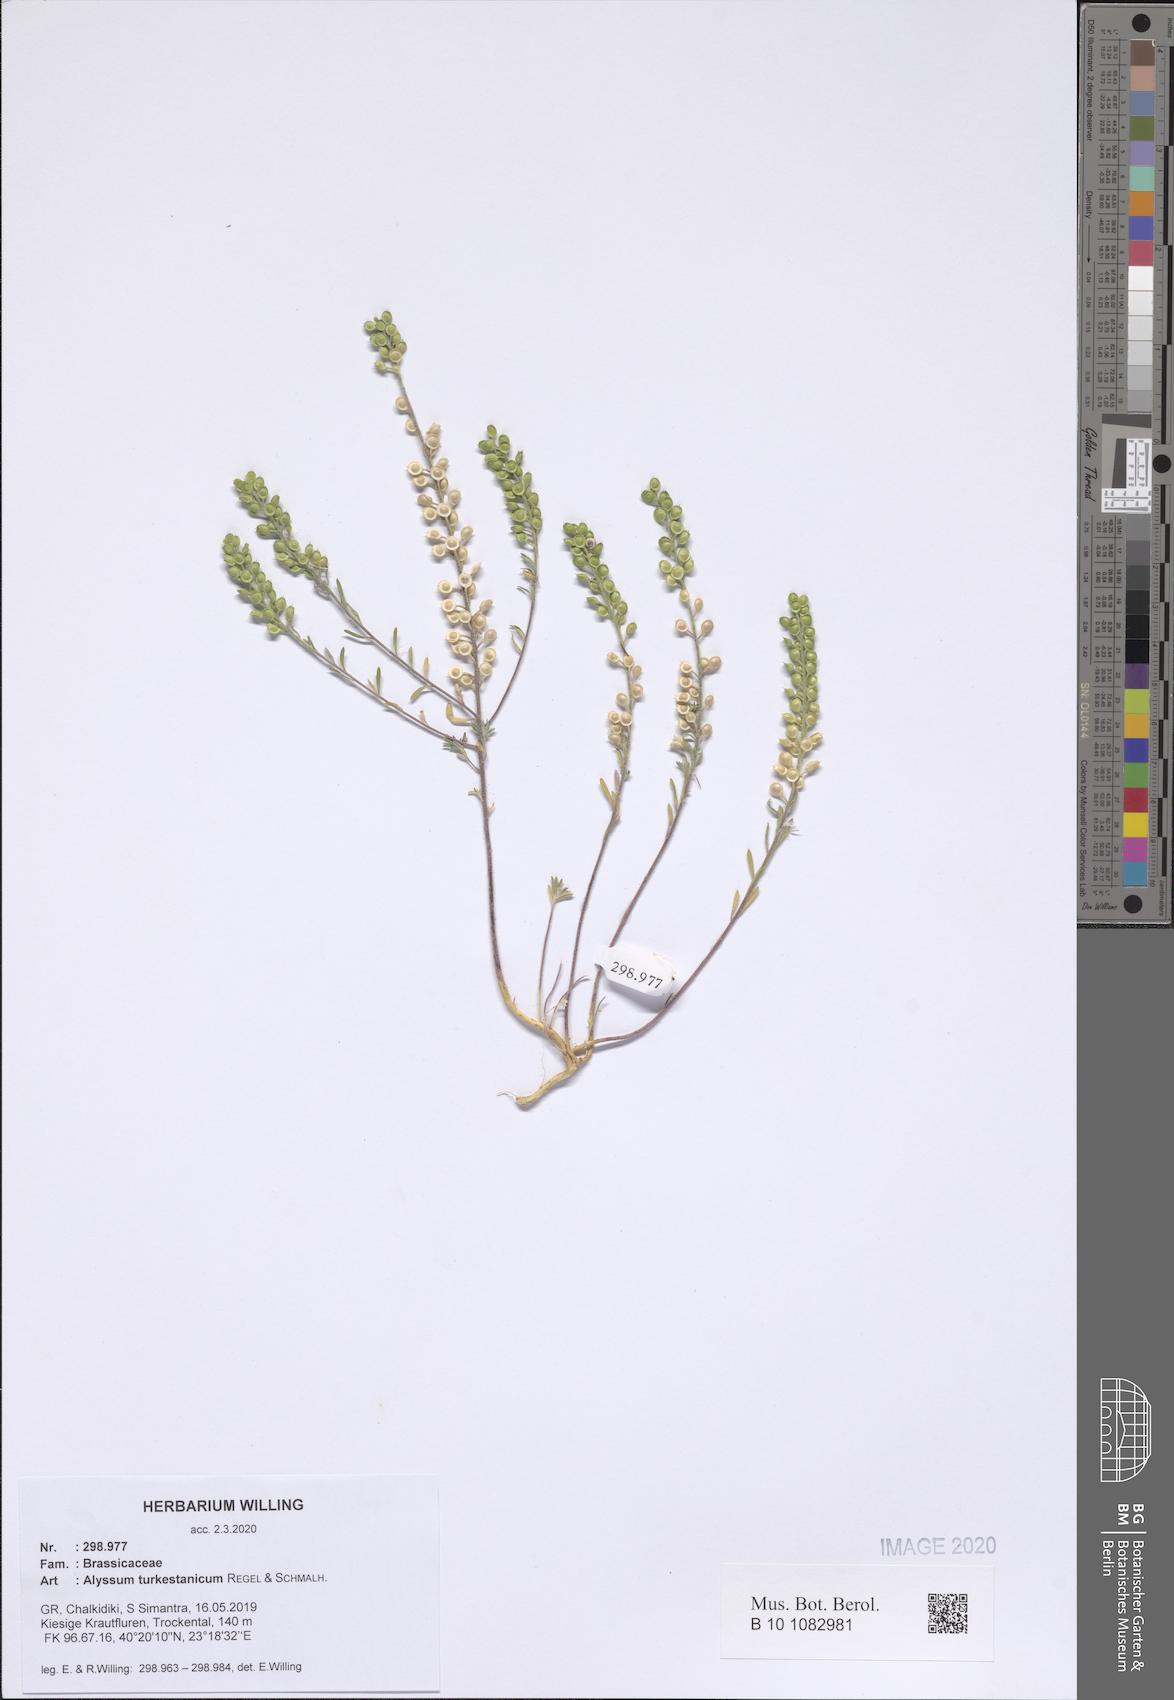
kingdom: Plantae
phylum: Tracheophyta
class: Magnoliopsida
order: Brassicales
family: Brassicaceae
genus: Alyssum
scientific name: Alyssum turkestanicum
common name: Desert alyssum
